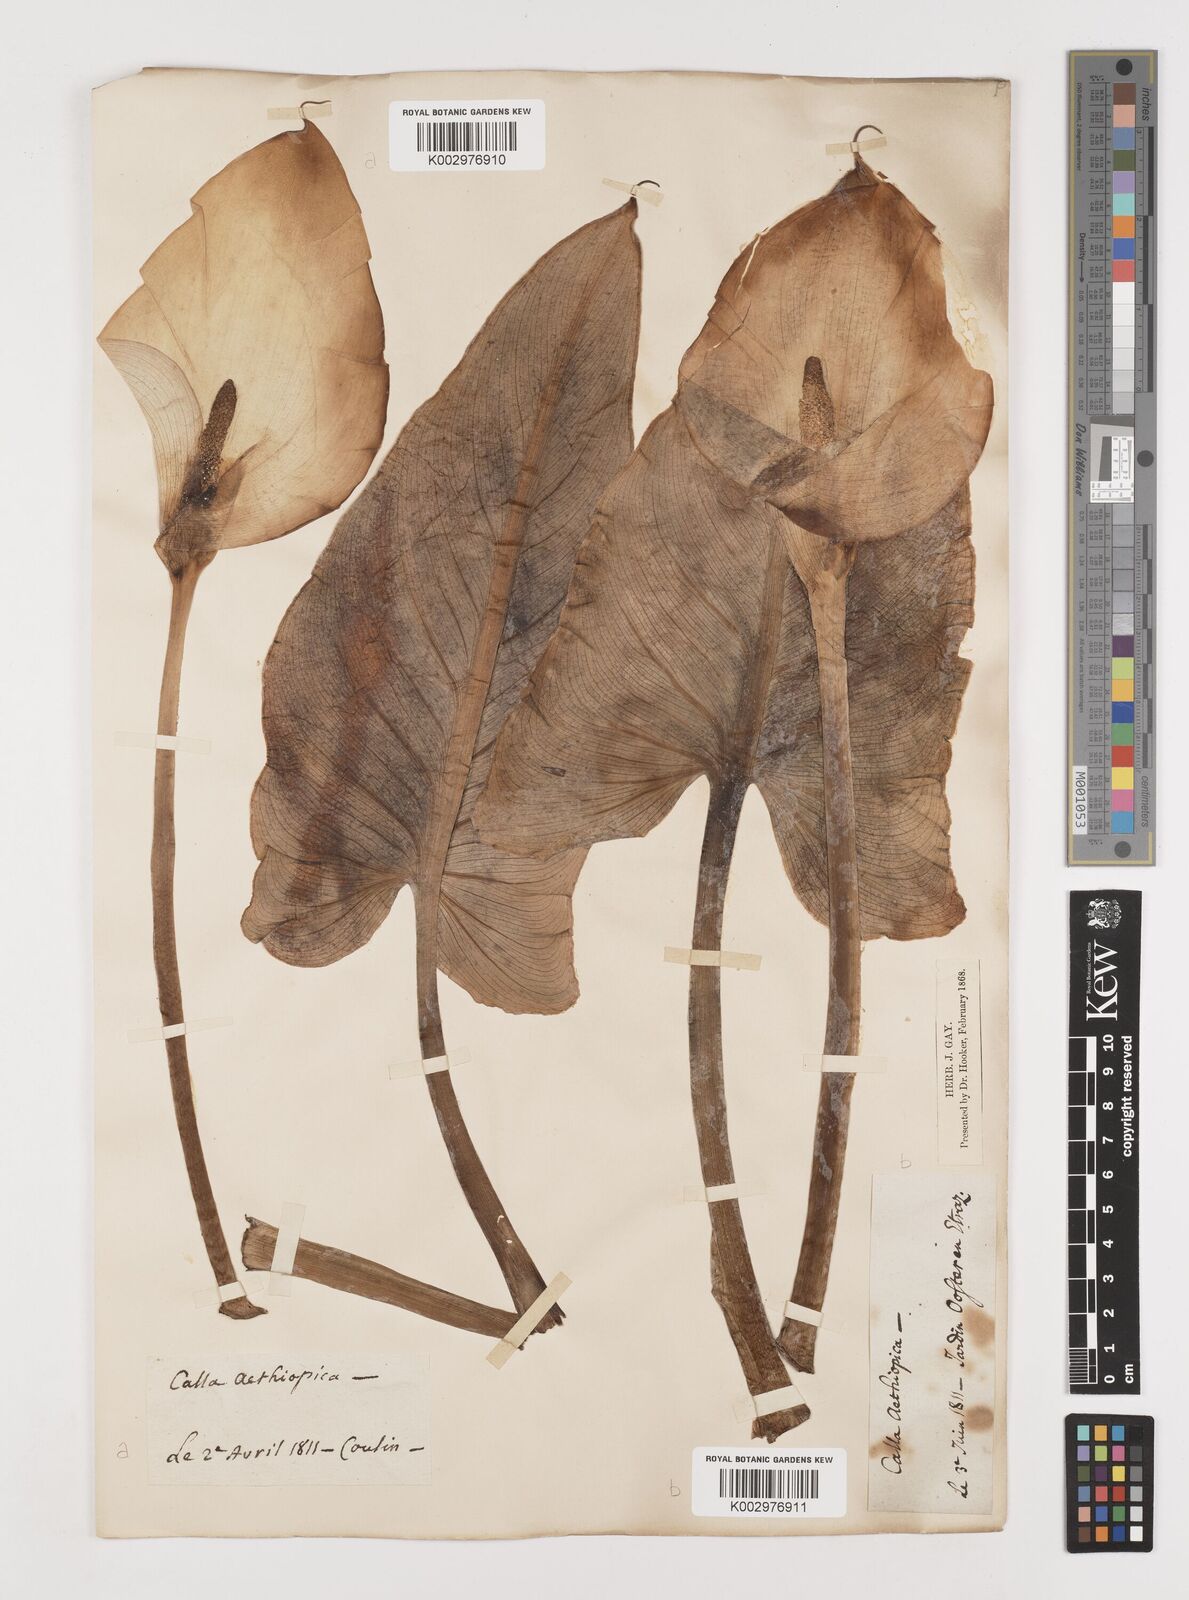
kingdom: Plantae
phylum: Tracheophyta
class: Liliopsida
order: Alismatales
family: Araceae
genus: Zantedeschia
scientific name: Zantedeschia aethiopica
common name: Altar-lily
